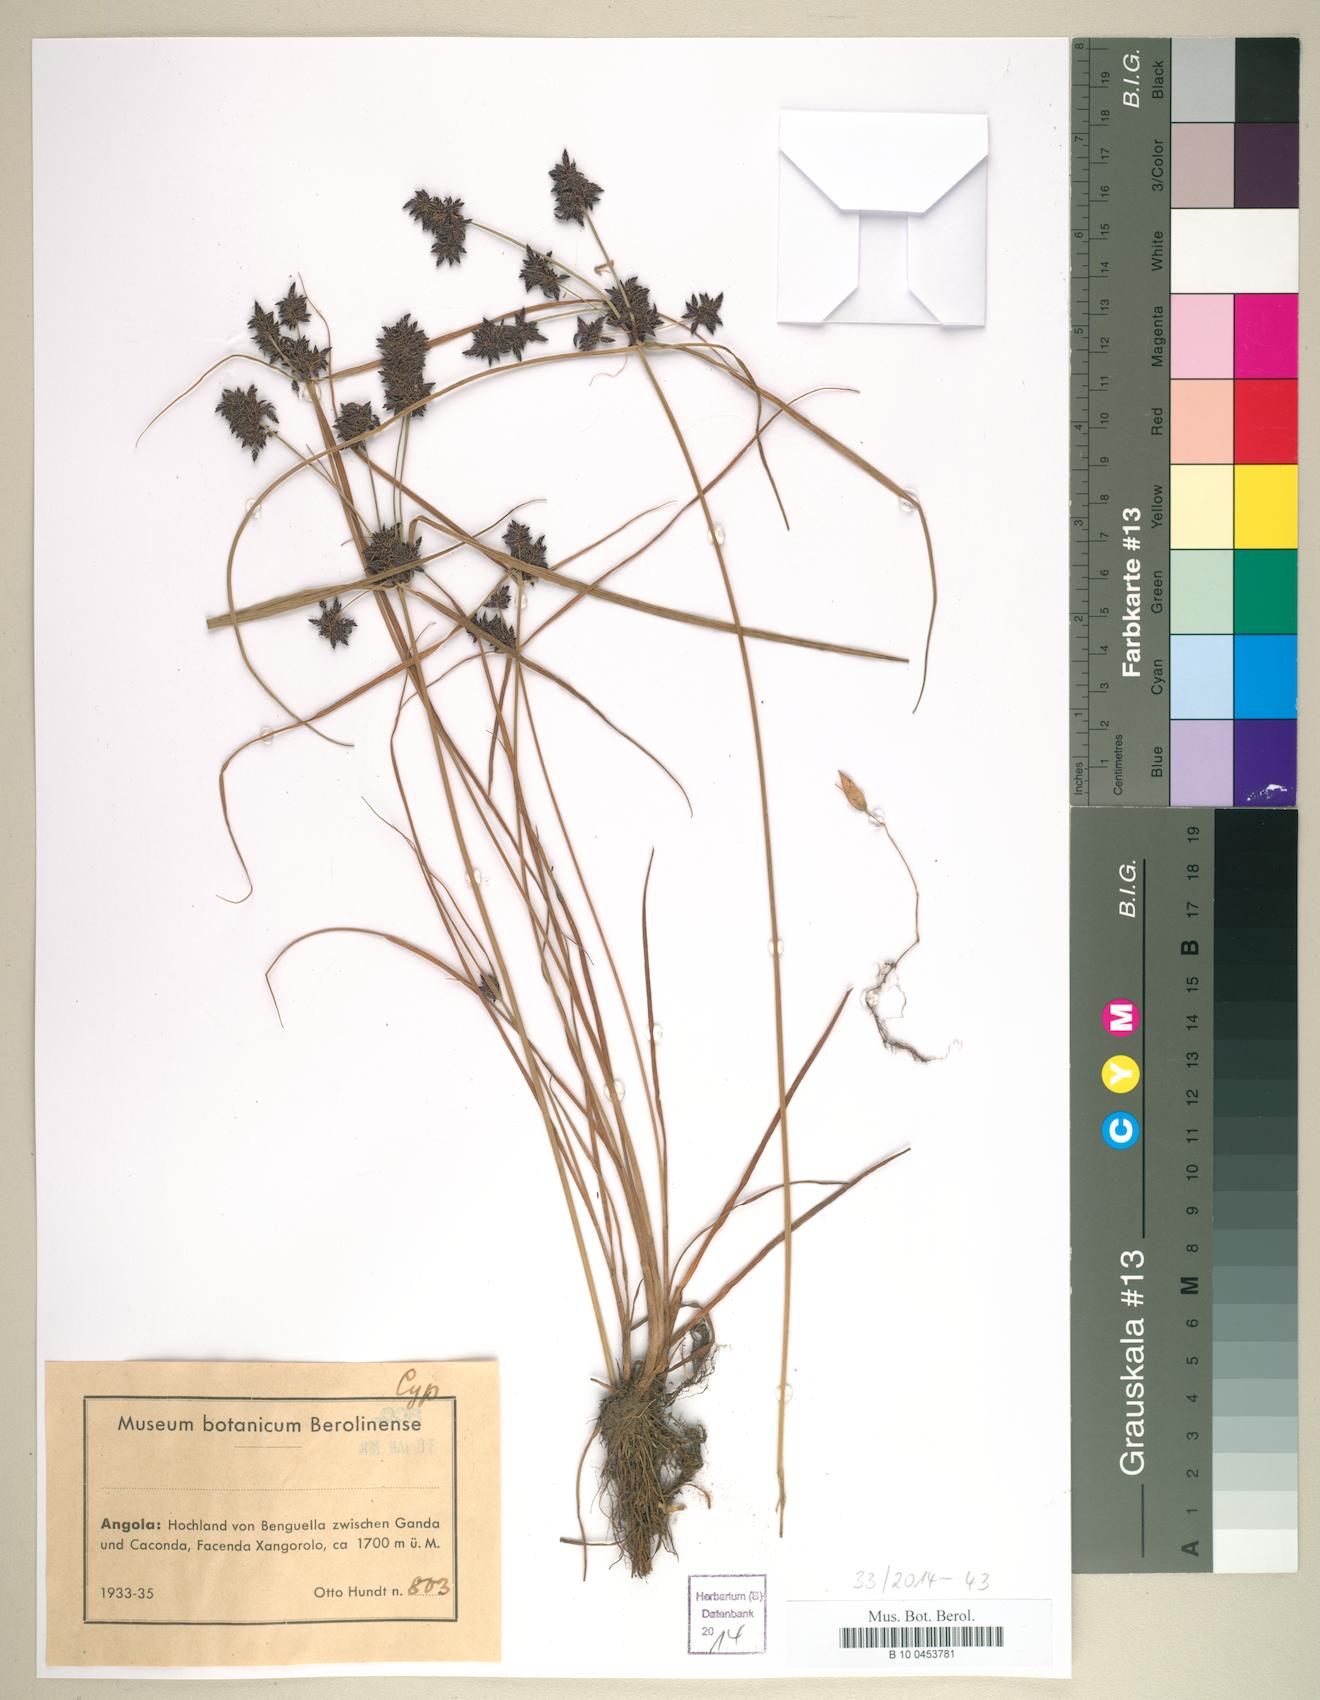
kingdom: Plantae
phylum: Tracheophyta
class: Liliopsida
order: Poales
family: Cyperaceae
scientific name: Cyperaceae
